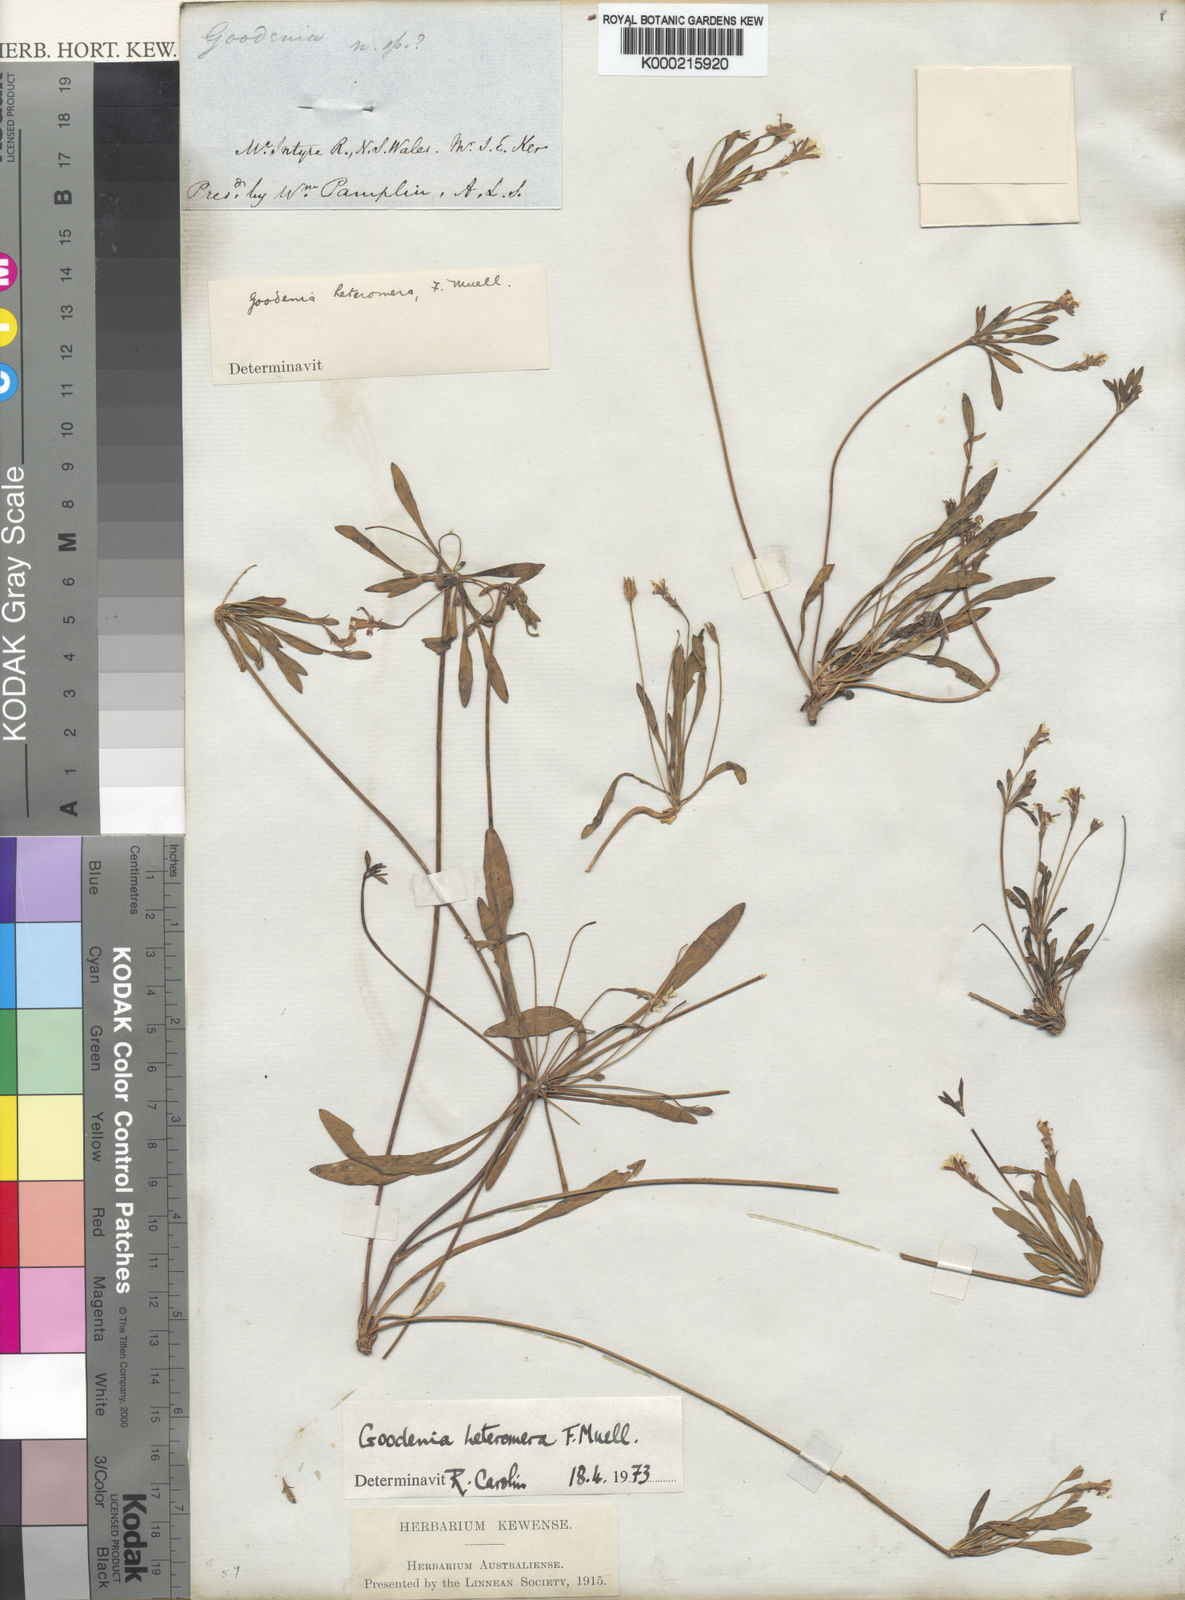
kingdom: Plantae
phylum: Tracheophyta
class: Magnoliopsida
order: Asterales
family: Goodeniaceae
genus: Goodenia
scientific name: Goodenia heteromera
